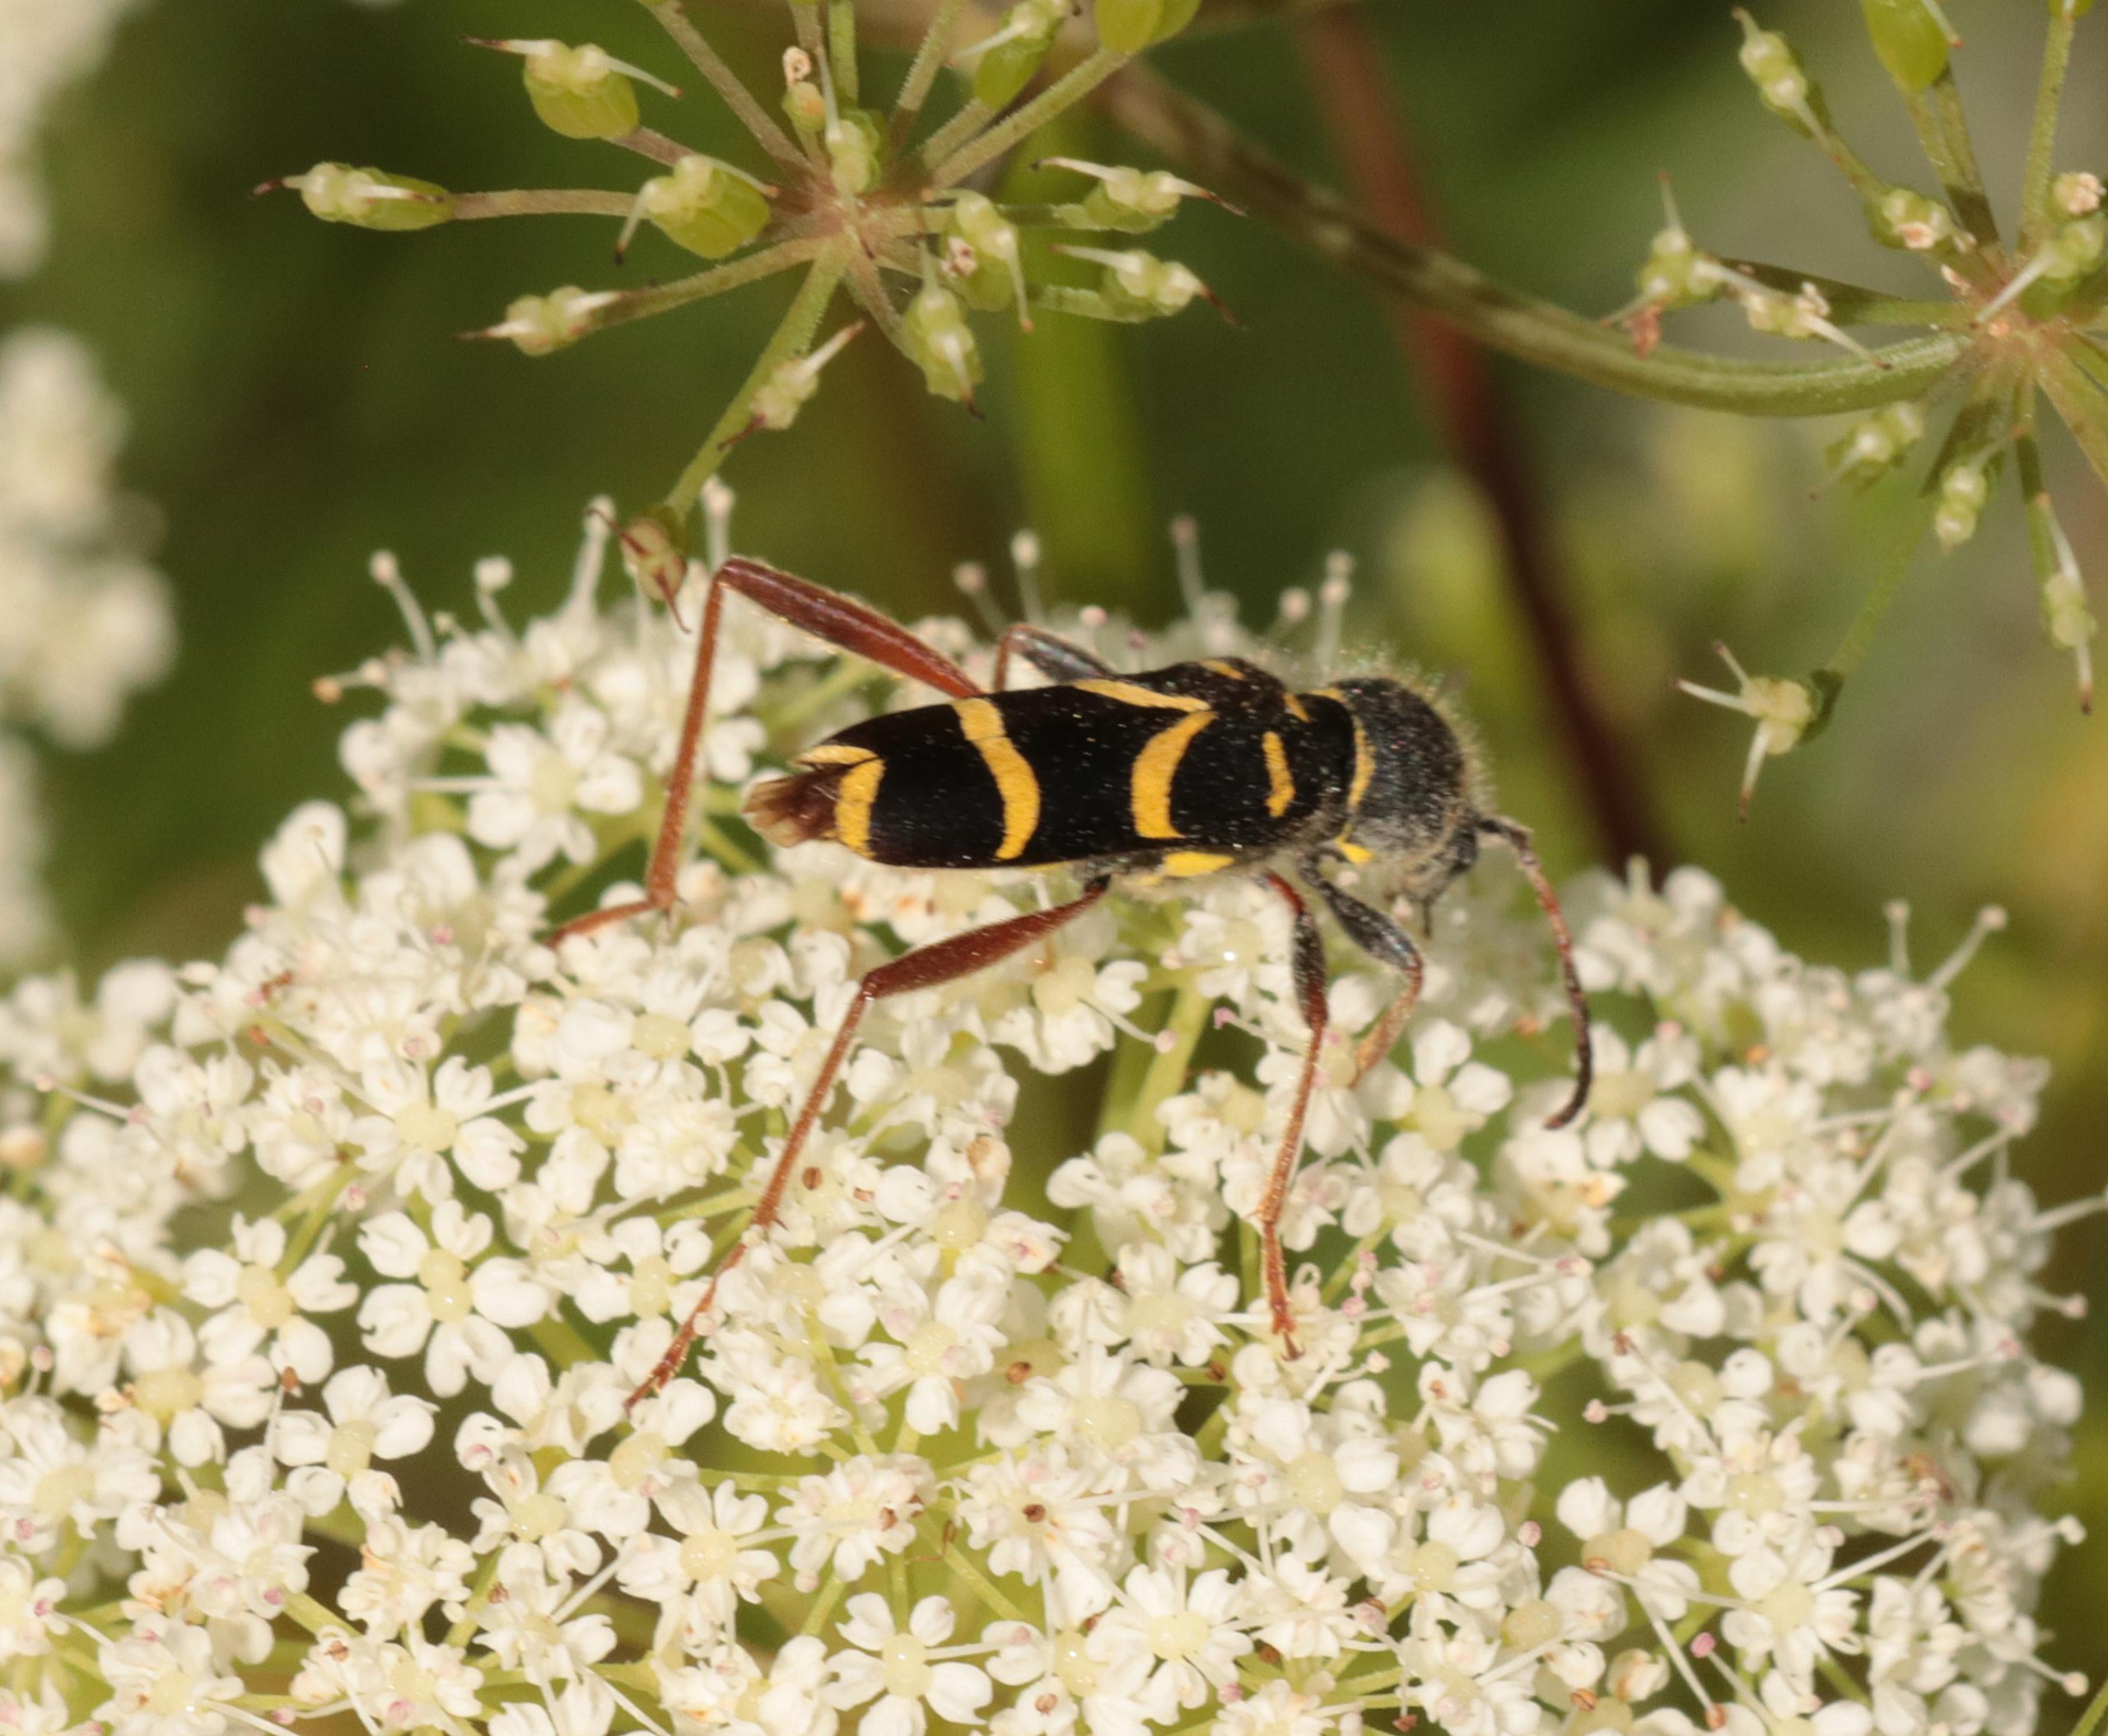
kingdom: Animalia
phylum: Arthropoda
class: Insecta
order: Coleoptera
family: Cerambycidae
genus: Clytus
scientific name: Clytus arietis
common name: Lille hvepsebuk
